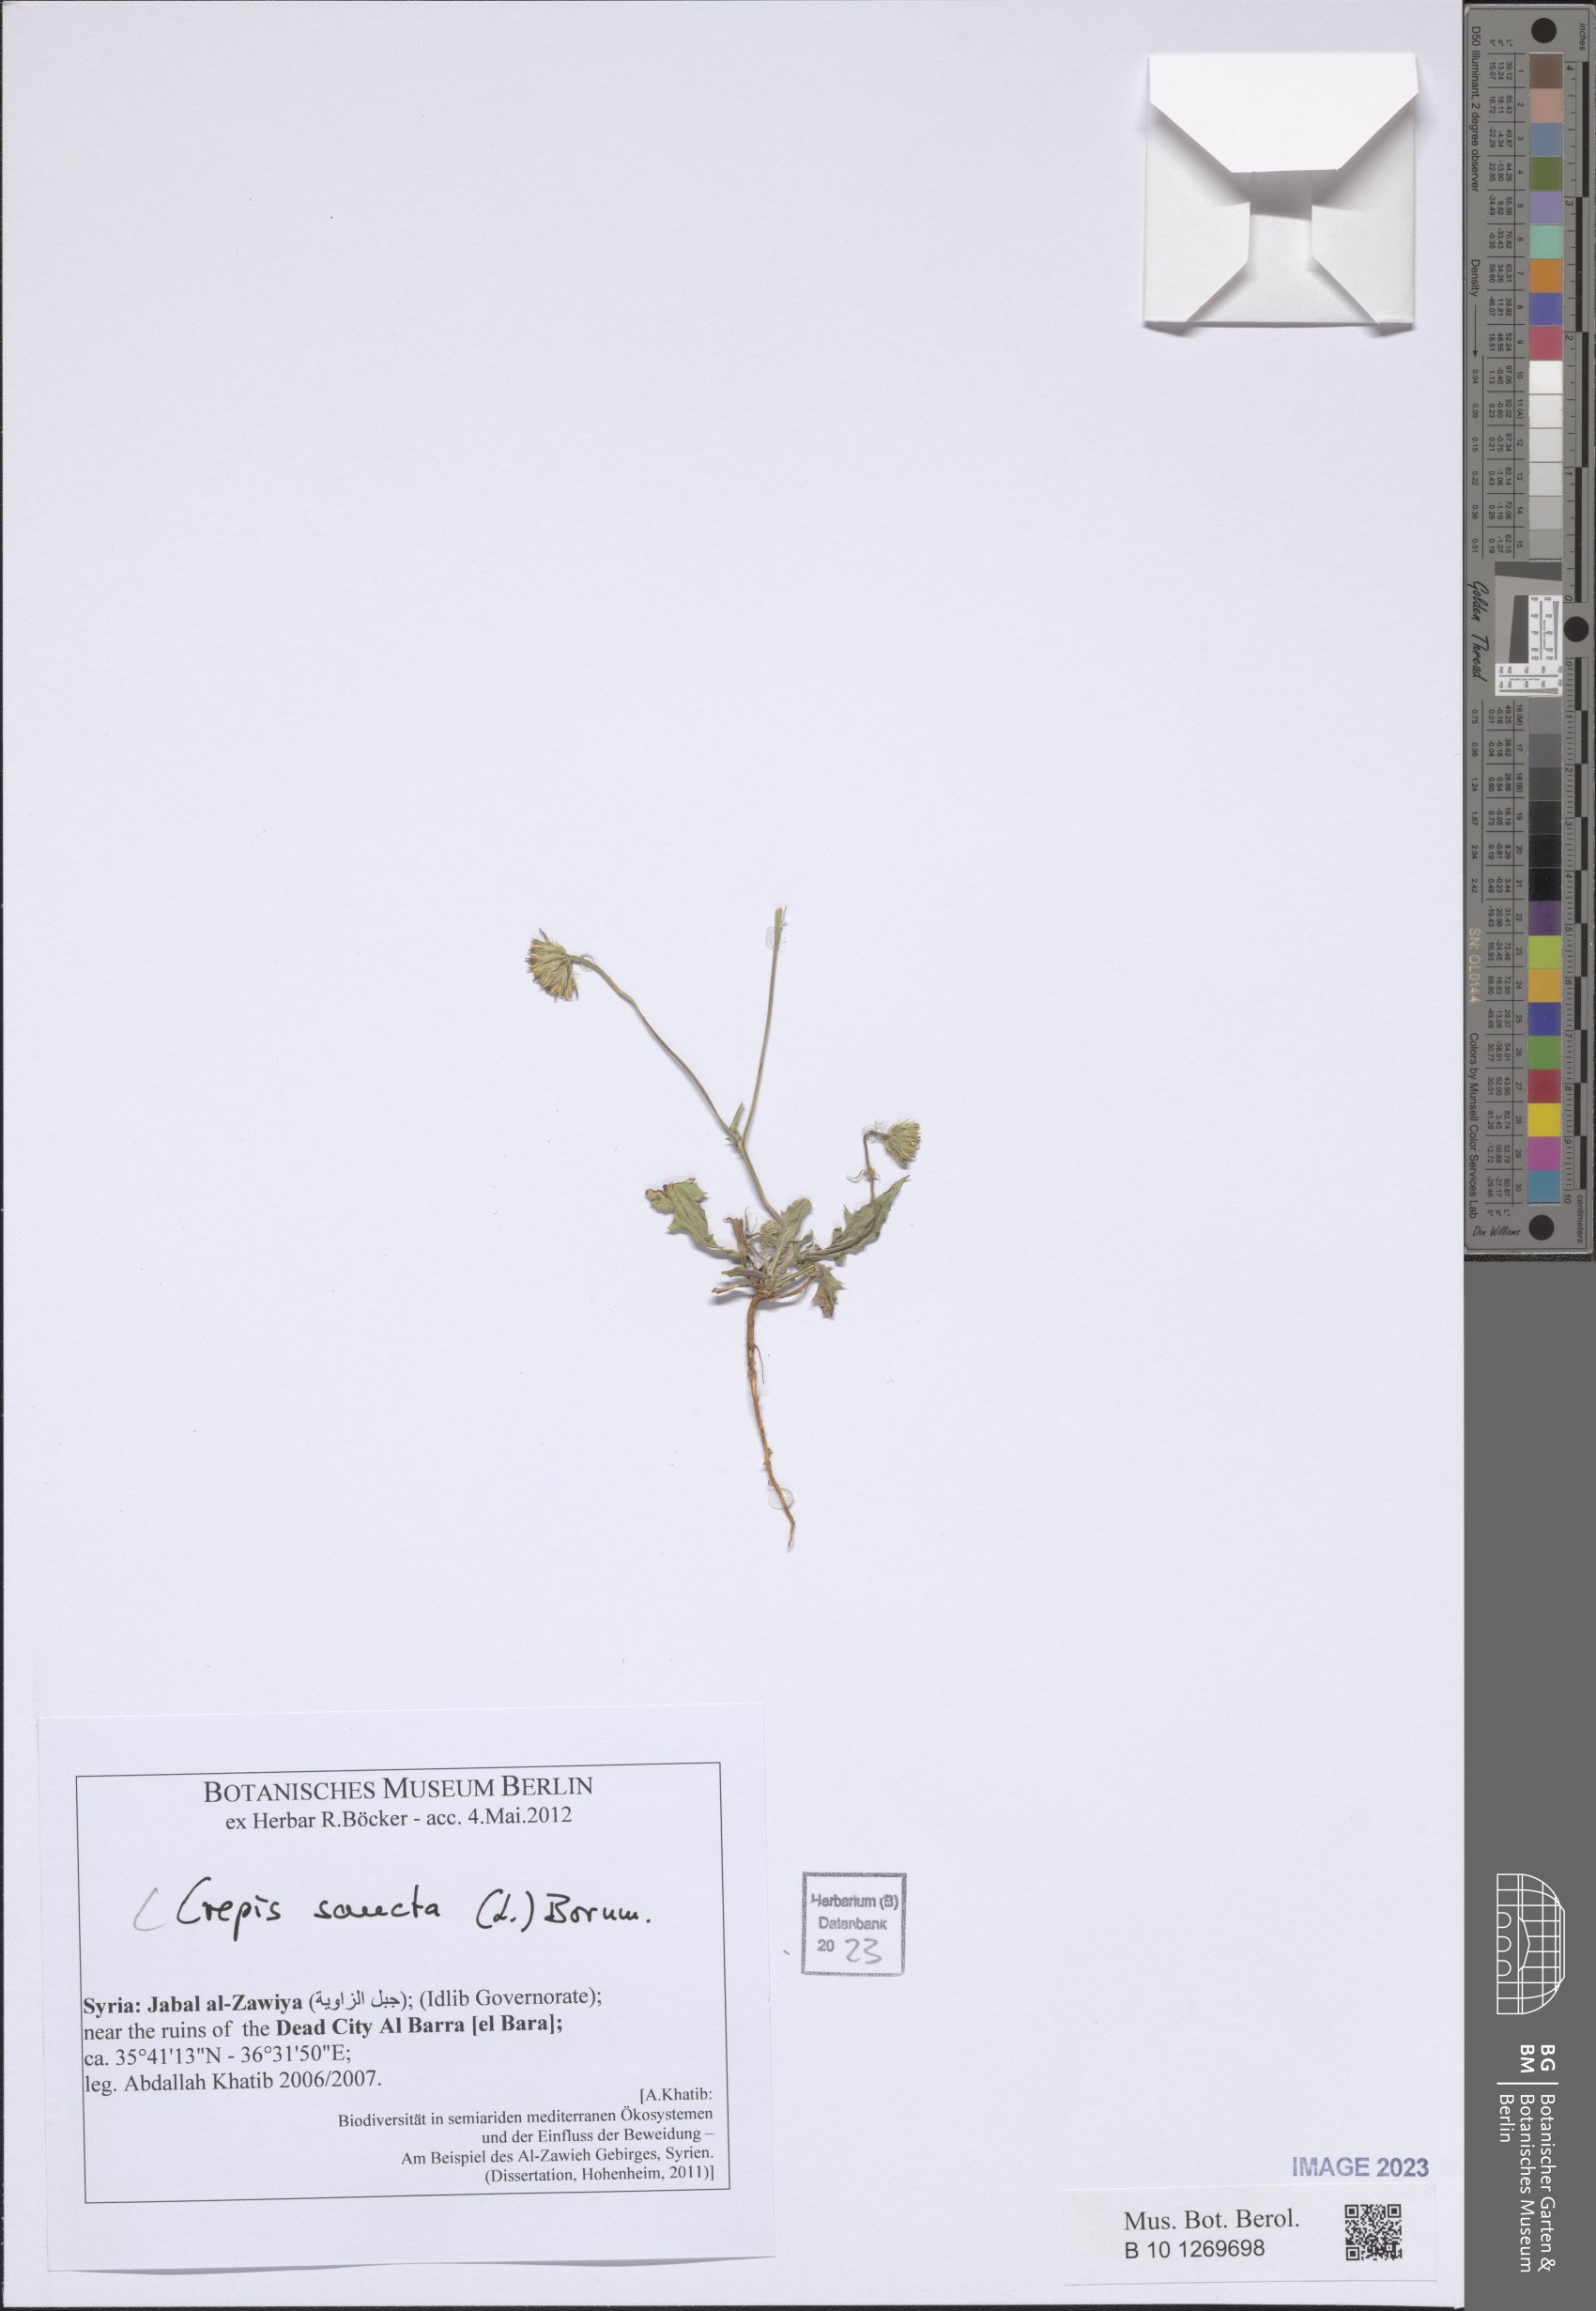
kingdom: Plantae
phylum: Tracheophyta
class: Magnoliopsida
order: Asterales
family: Asteraceae
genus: Crepis
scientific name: Crepis sancta
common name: Hawk's-beard
